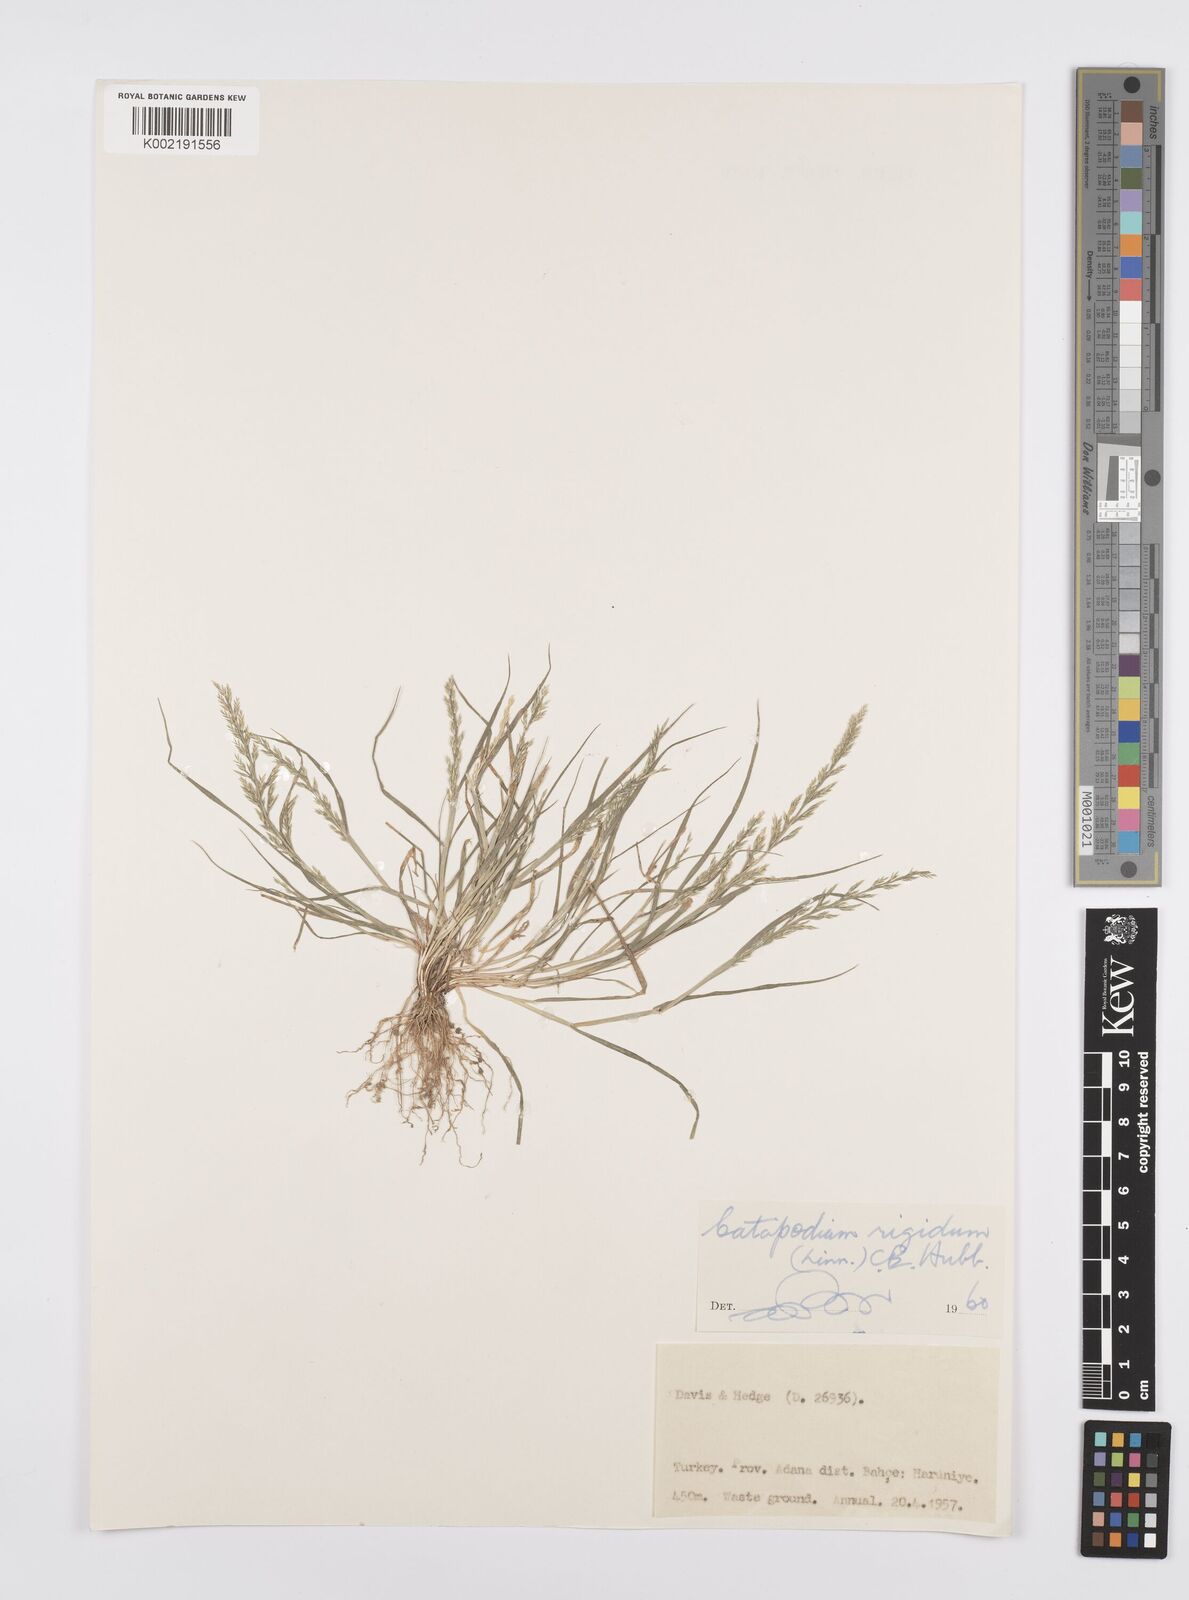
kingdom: Plantae
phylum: Tracheophyta
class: Liliopsida
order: Poales
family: Poaceae
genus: Catapodium
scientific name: Catapodium rigidum
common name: Fern-grass
